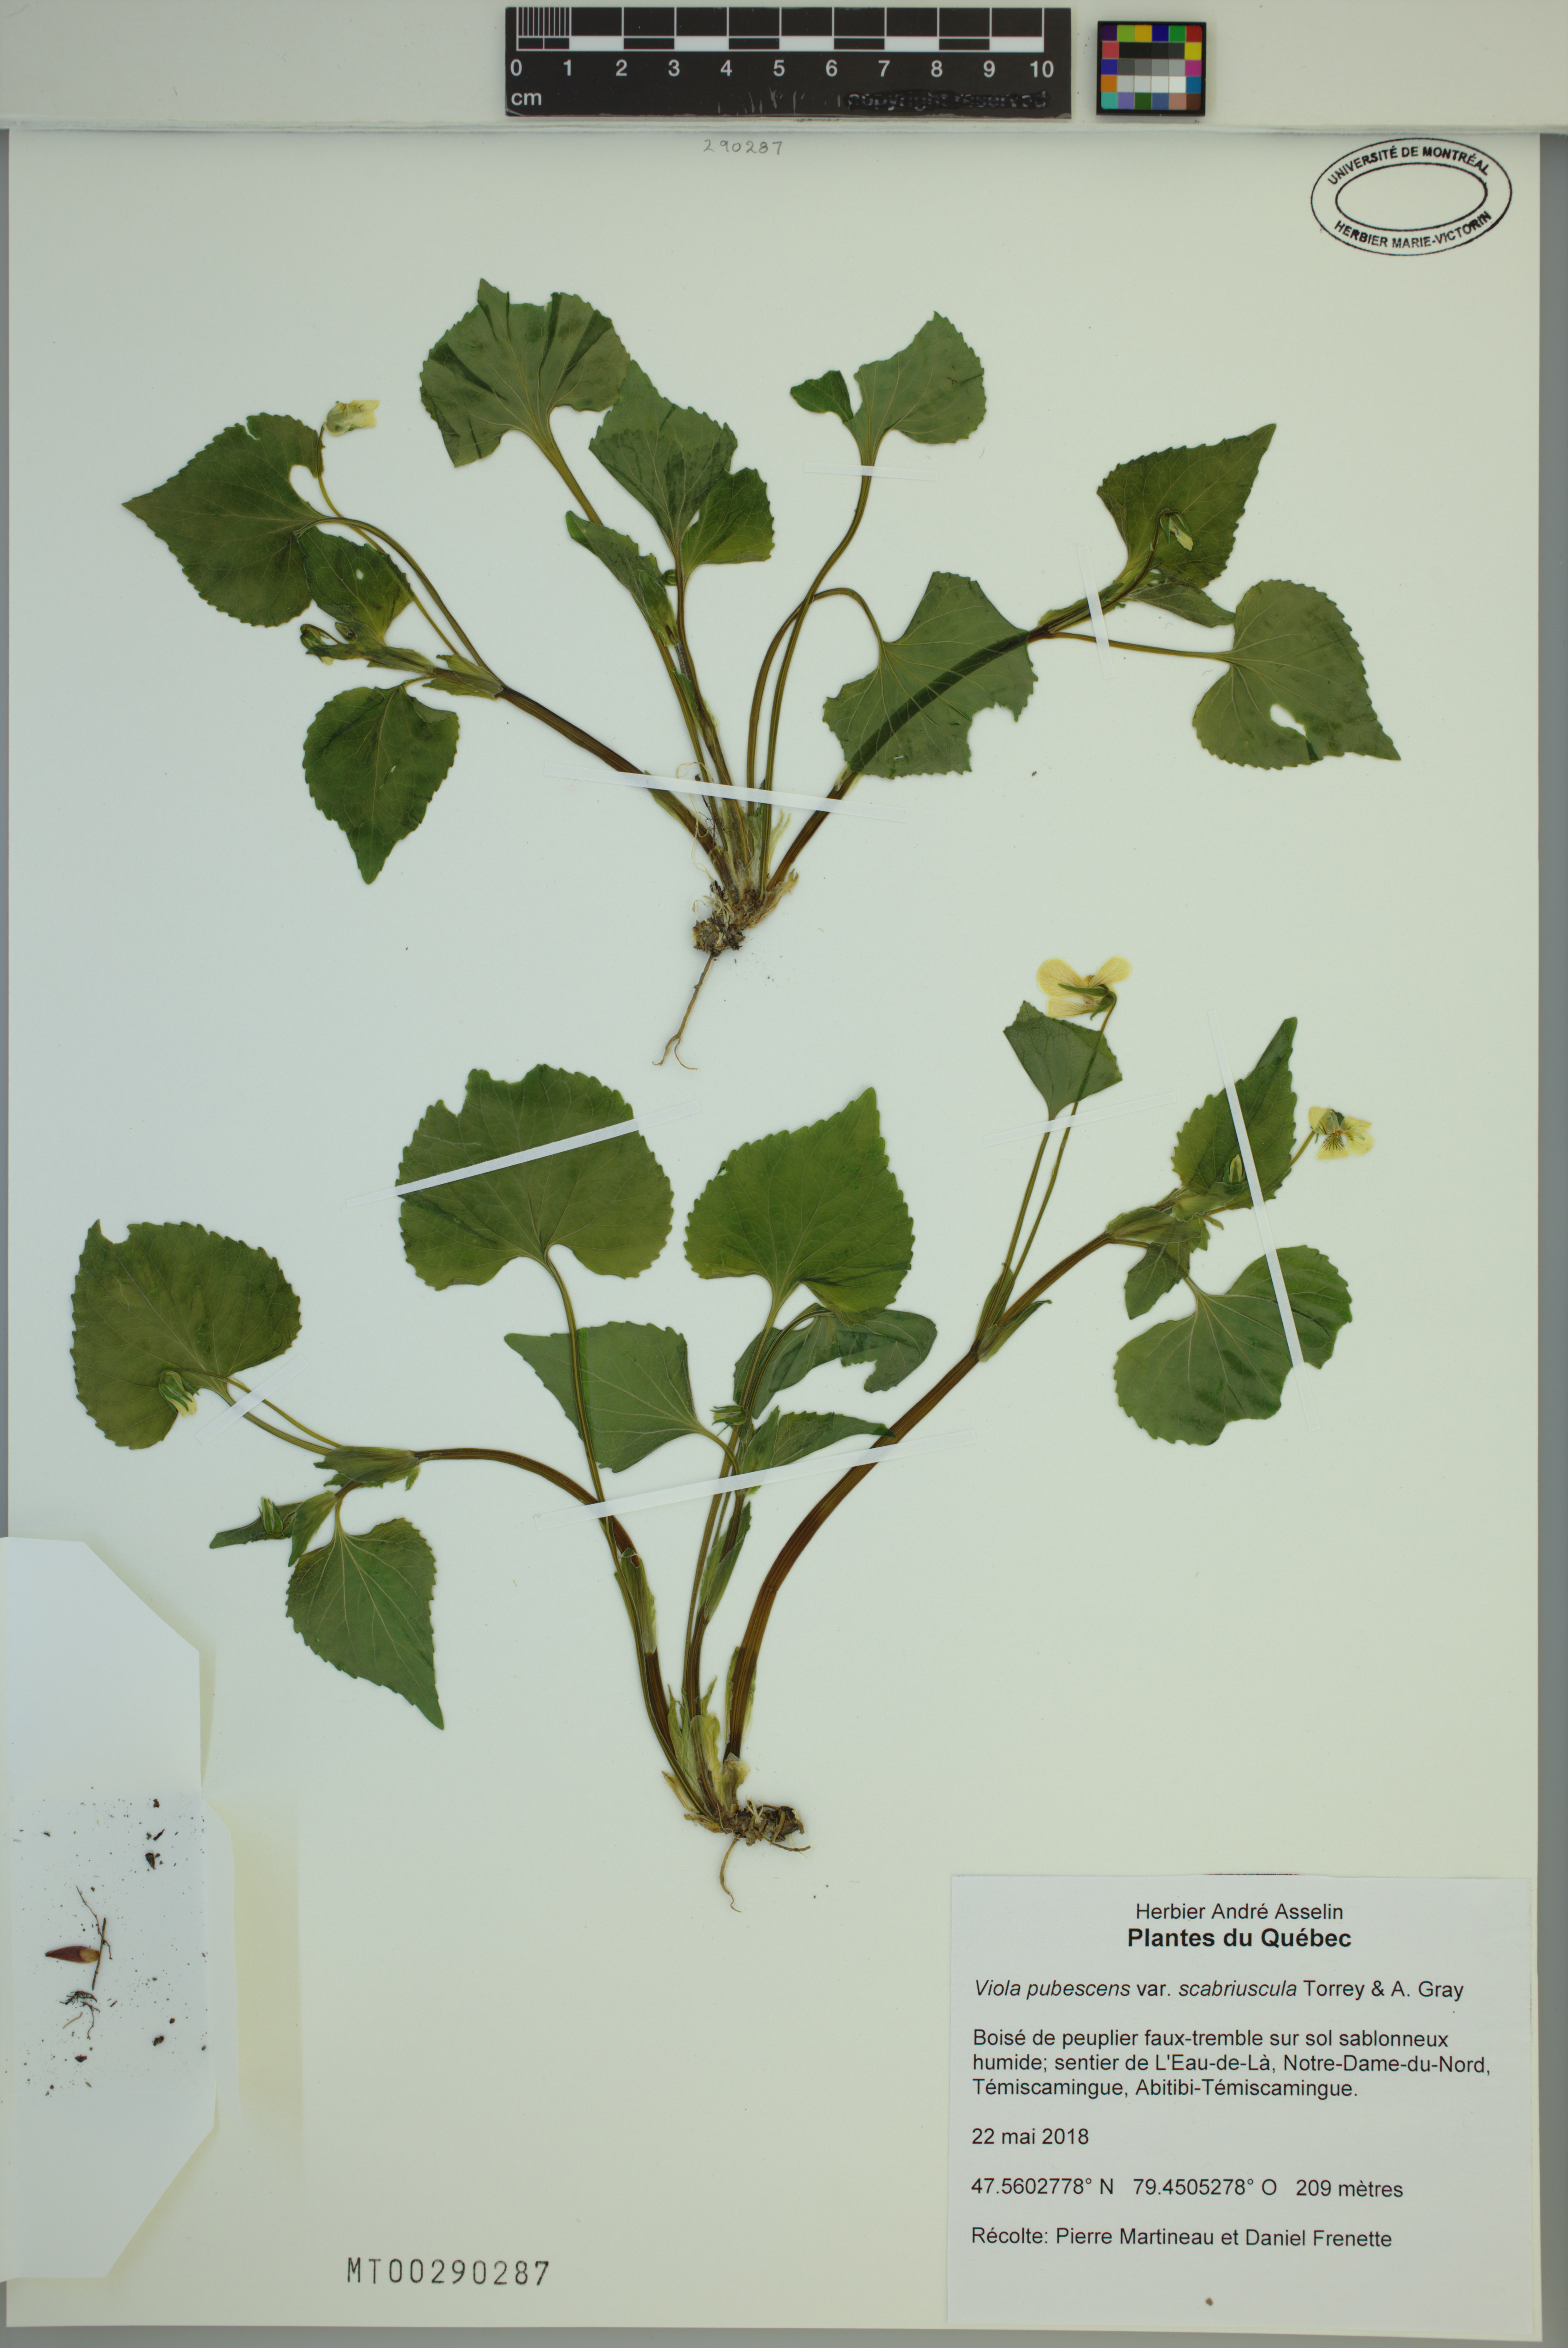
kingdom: Plantae
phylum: Tracheophyta
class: Magnoliopsida
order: Malpighiales
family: Violaceae
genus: Viola
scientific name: Viola eriocarpa
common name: Smooth yellow violet
